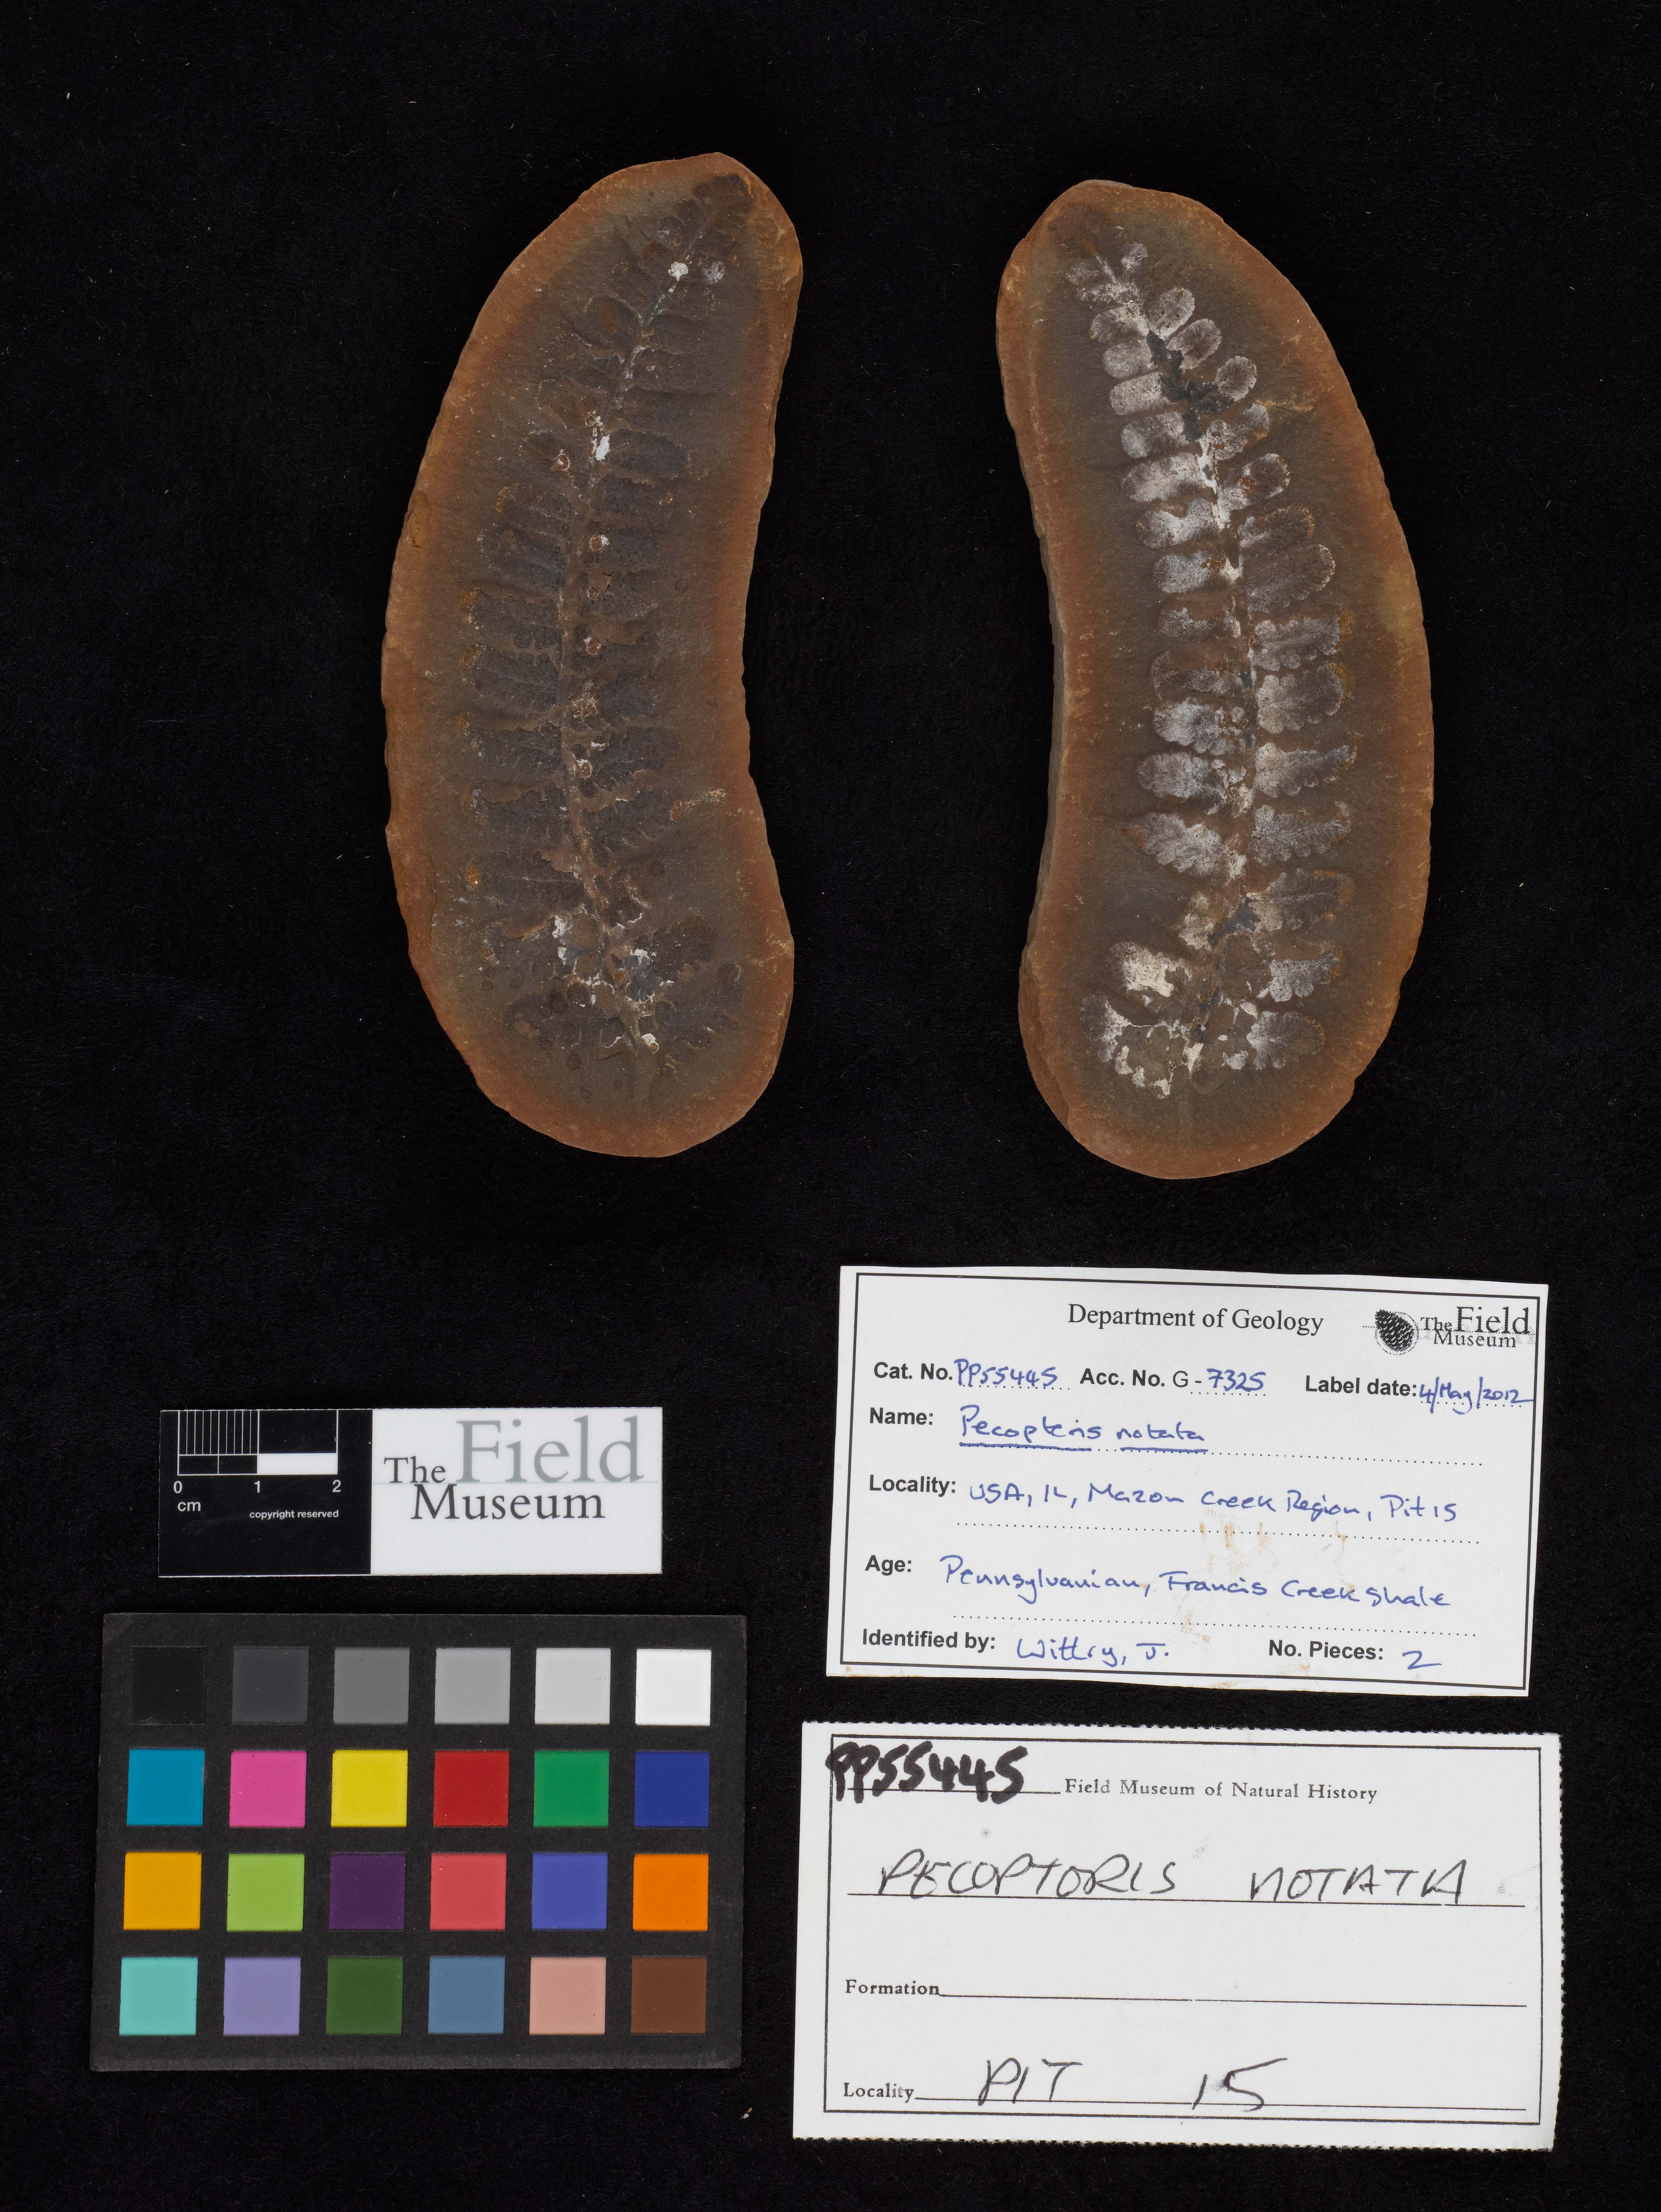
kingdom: Plantae
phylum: Tracheophyta
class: Polypodiopsida
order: Marattiales
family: Asterothecaceae
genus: Pecopteris
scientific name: Pecopteris
